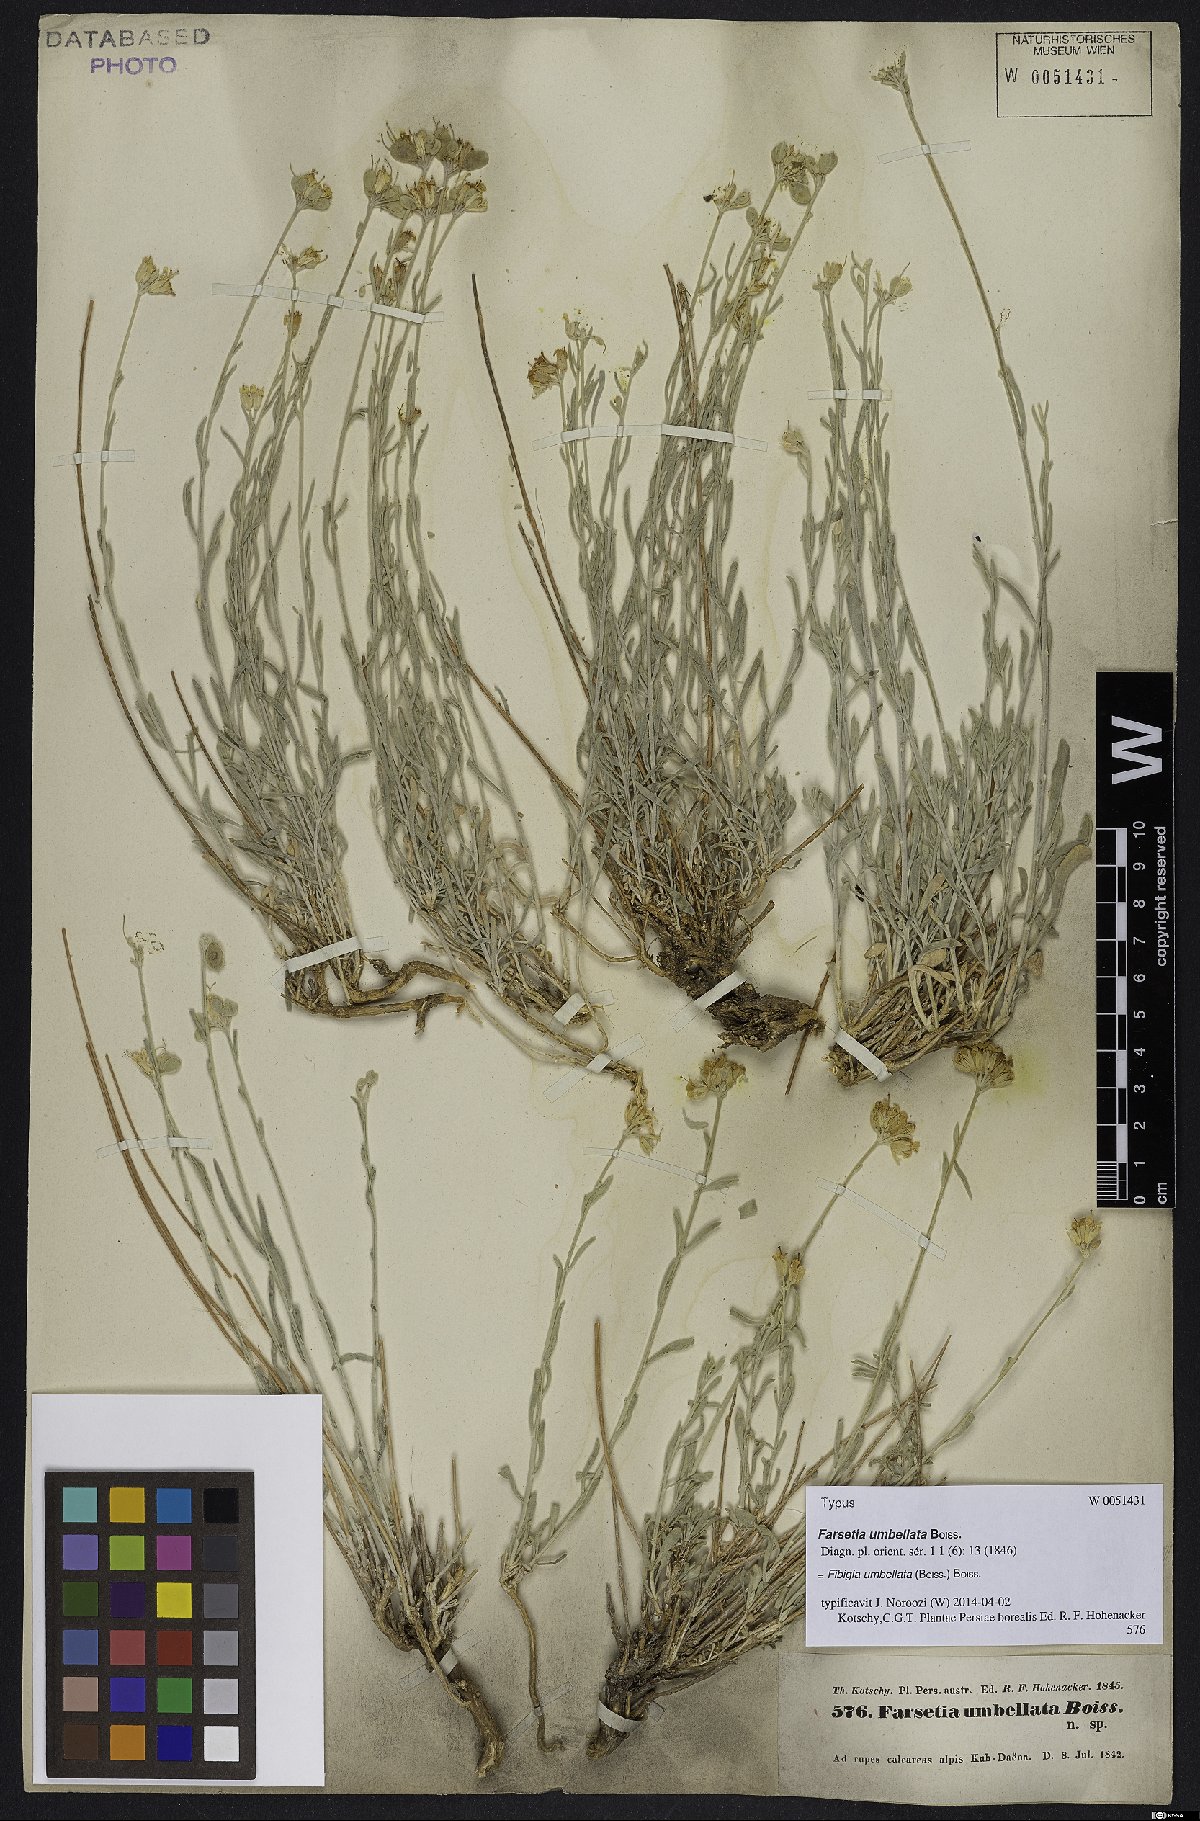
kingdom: Plantae
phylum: Tracheophyta
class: Magnoliopsida
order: Brassicales
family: Brassicaceae
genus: Irania
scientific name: Irania umbellata
